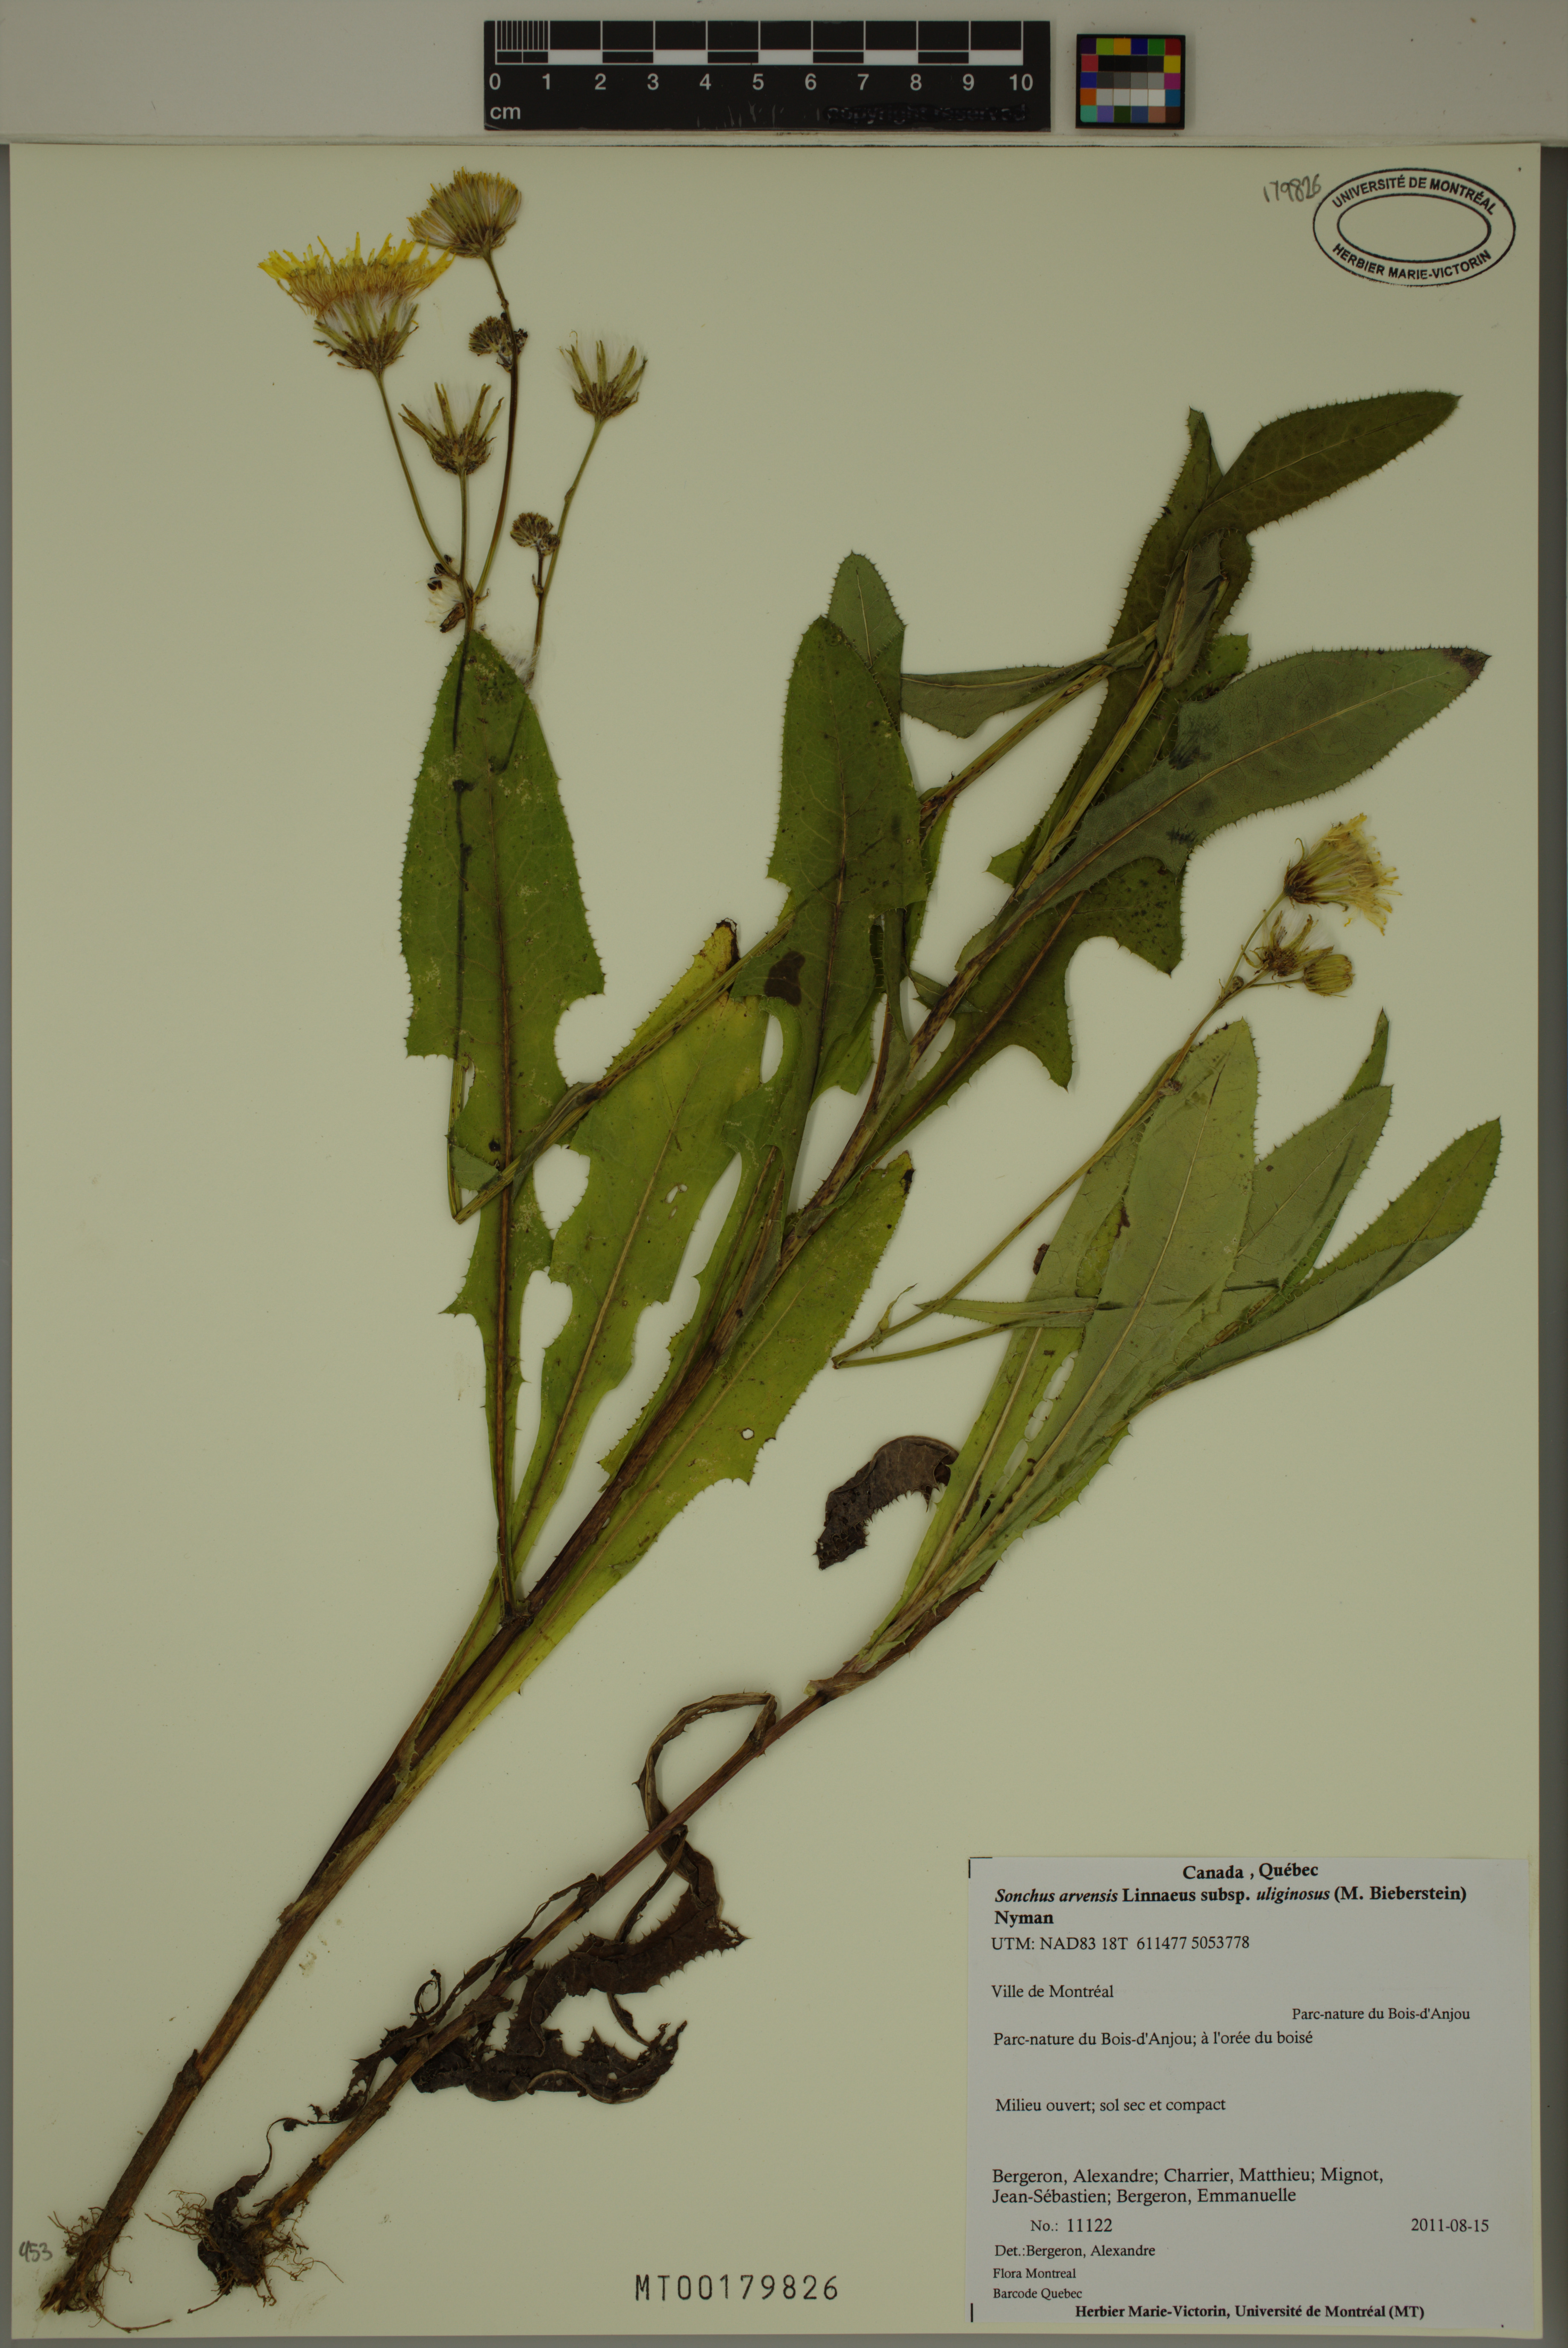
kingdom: Plantae
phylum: Tracheophyta
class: Magnoliopsida
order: Asterales
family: Asteraceae
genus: Sonchus
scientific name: Sonchus arvensis
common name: Perennial sow-thistle
